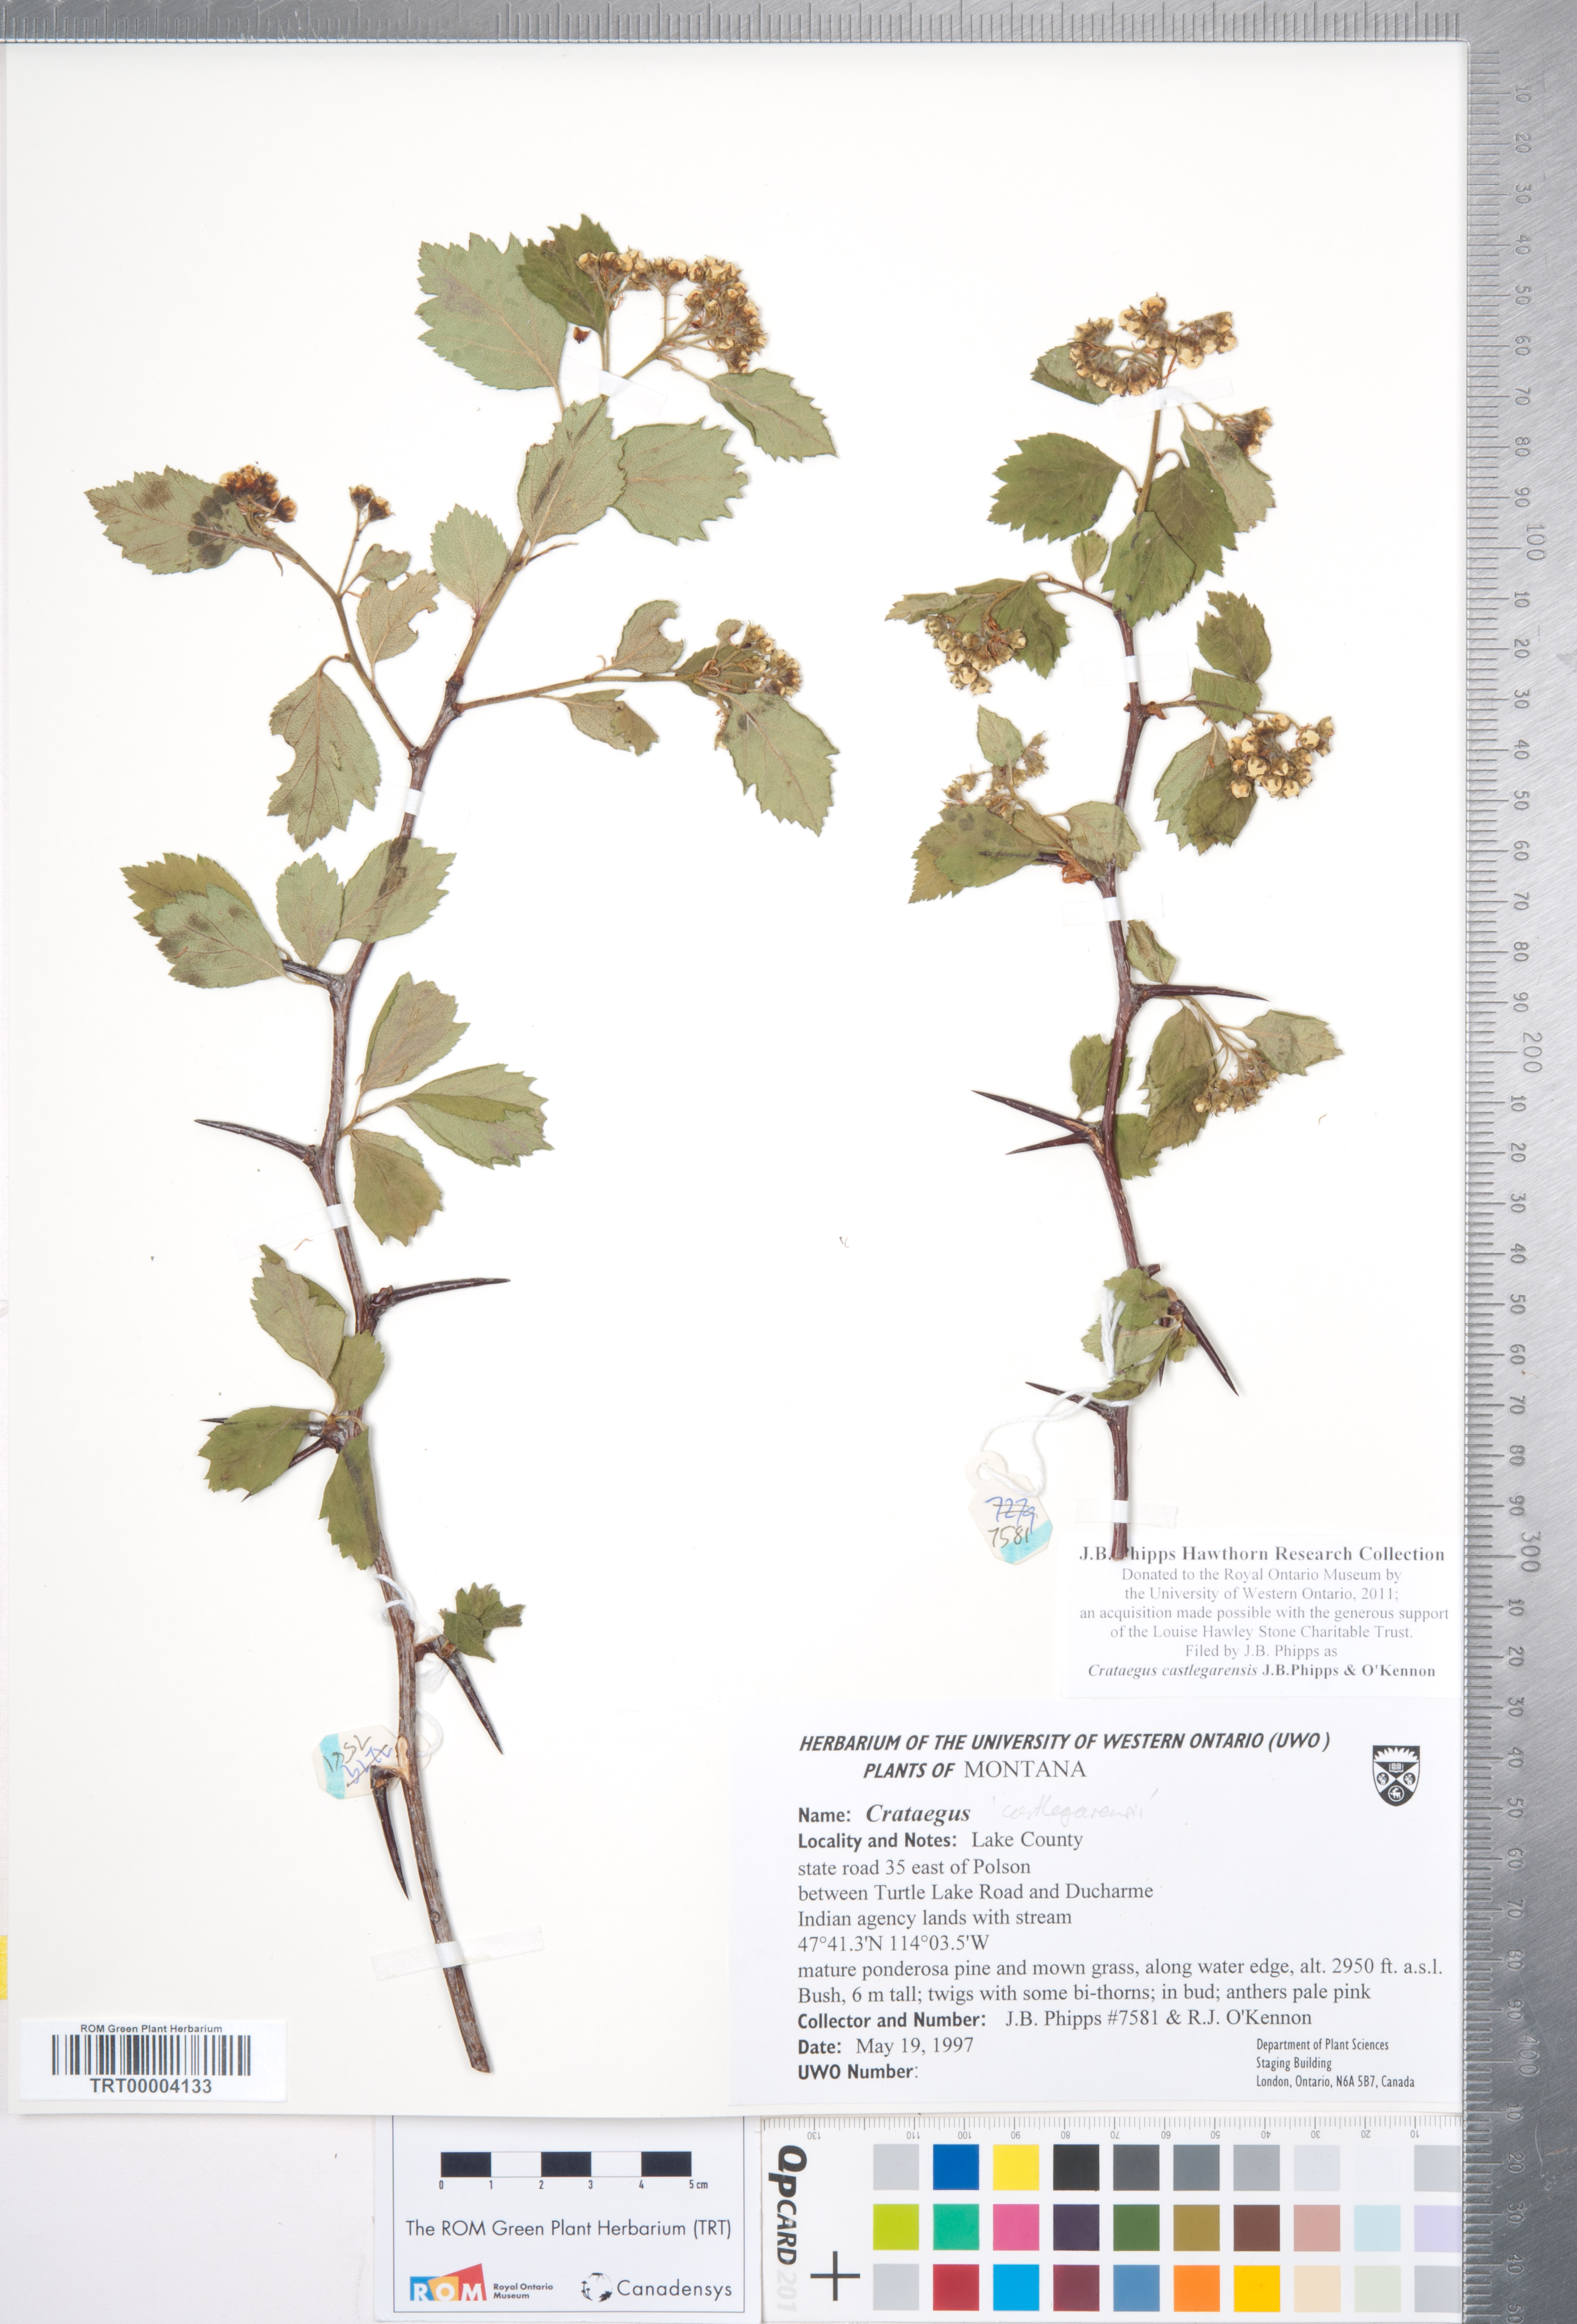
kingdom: Plantae
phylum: Tracheophyta
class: Magnoliopsida
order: Rosales
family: Rosaceae
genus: Crataegus
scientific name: Crataegus castlegarensis
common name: Castlegar hawthorn
